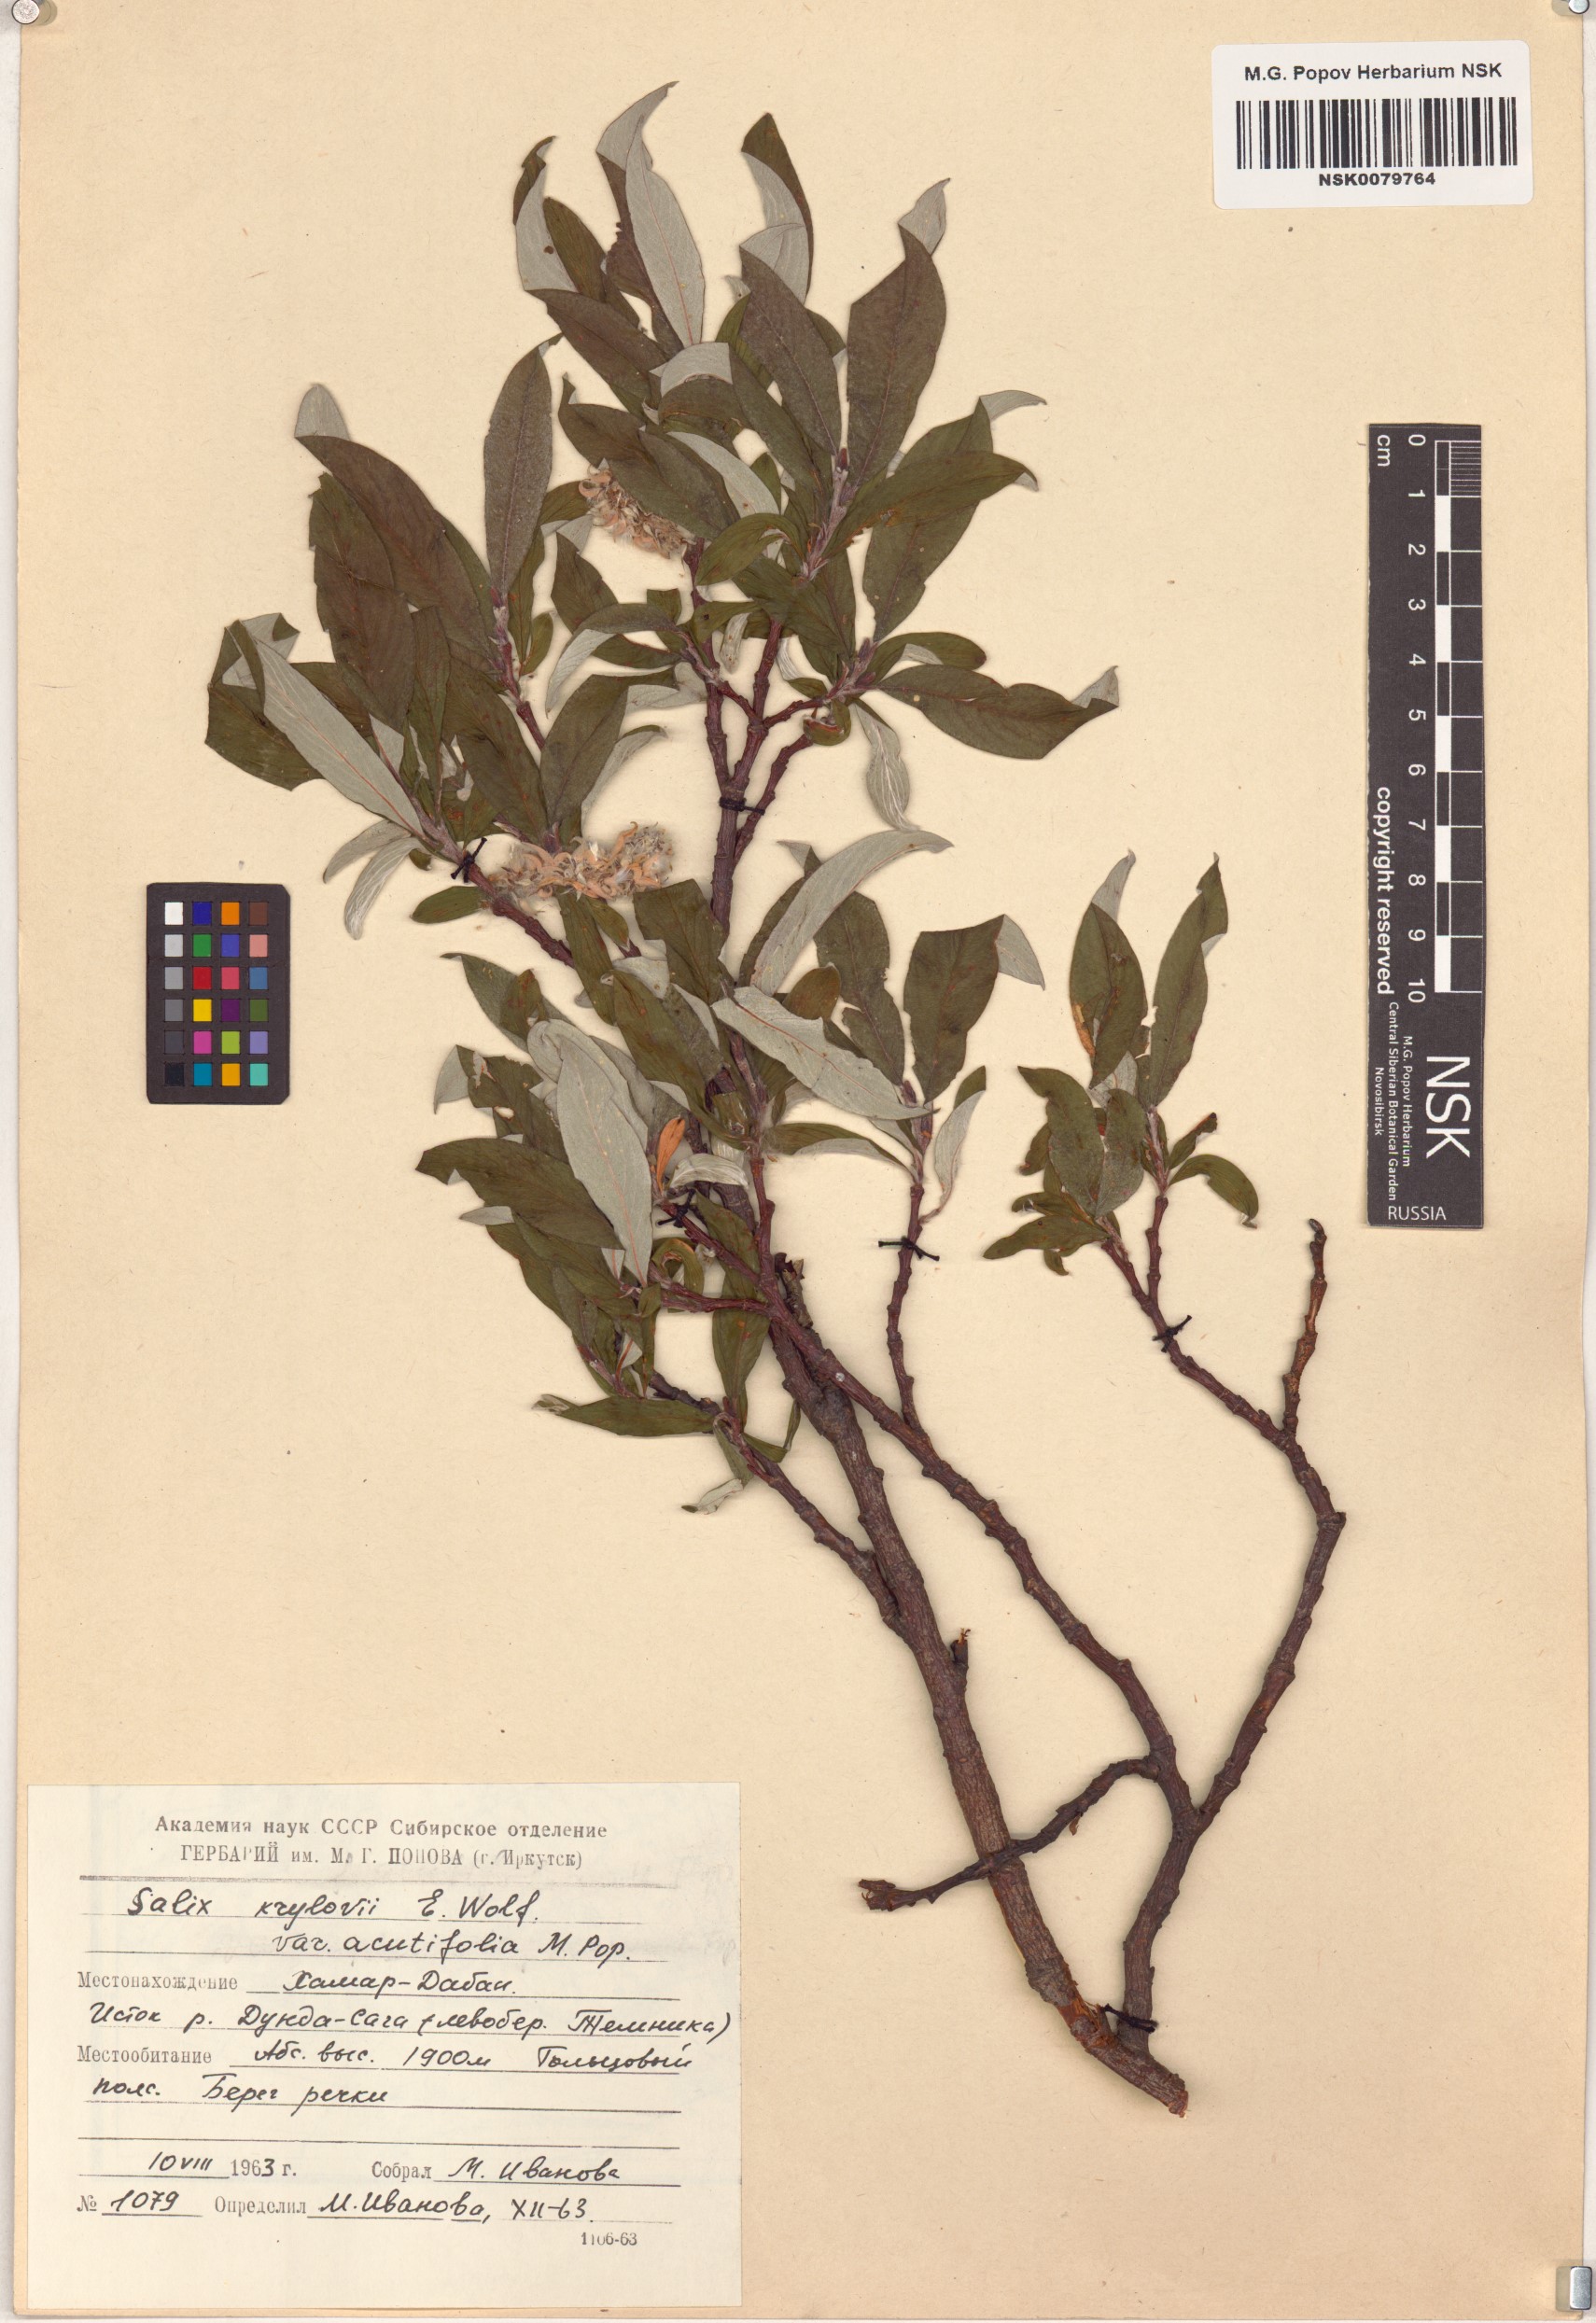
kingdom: Plantae
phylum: Tracheophyta
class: Magnoliopsida
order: Malpighiales
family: Salicaceae
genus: Salix
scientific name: Salix krylovii
